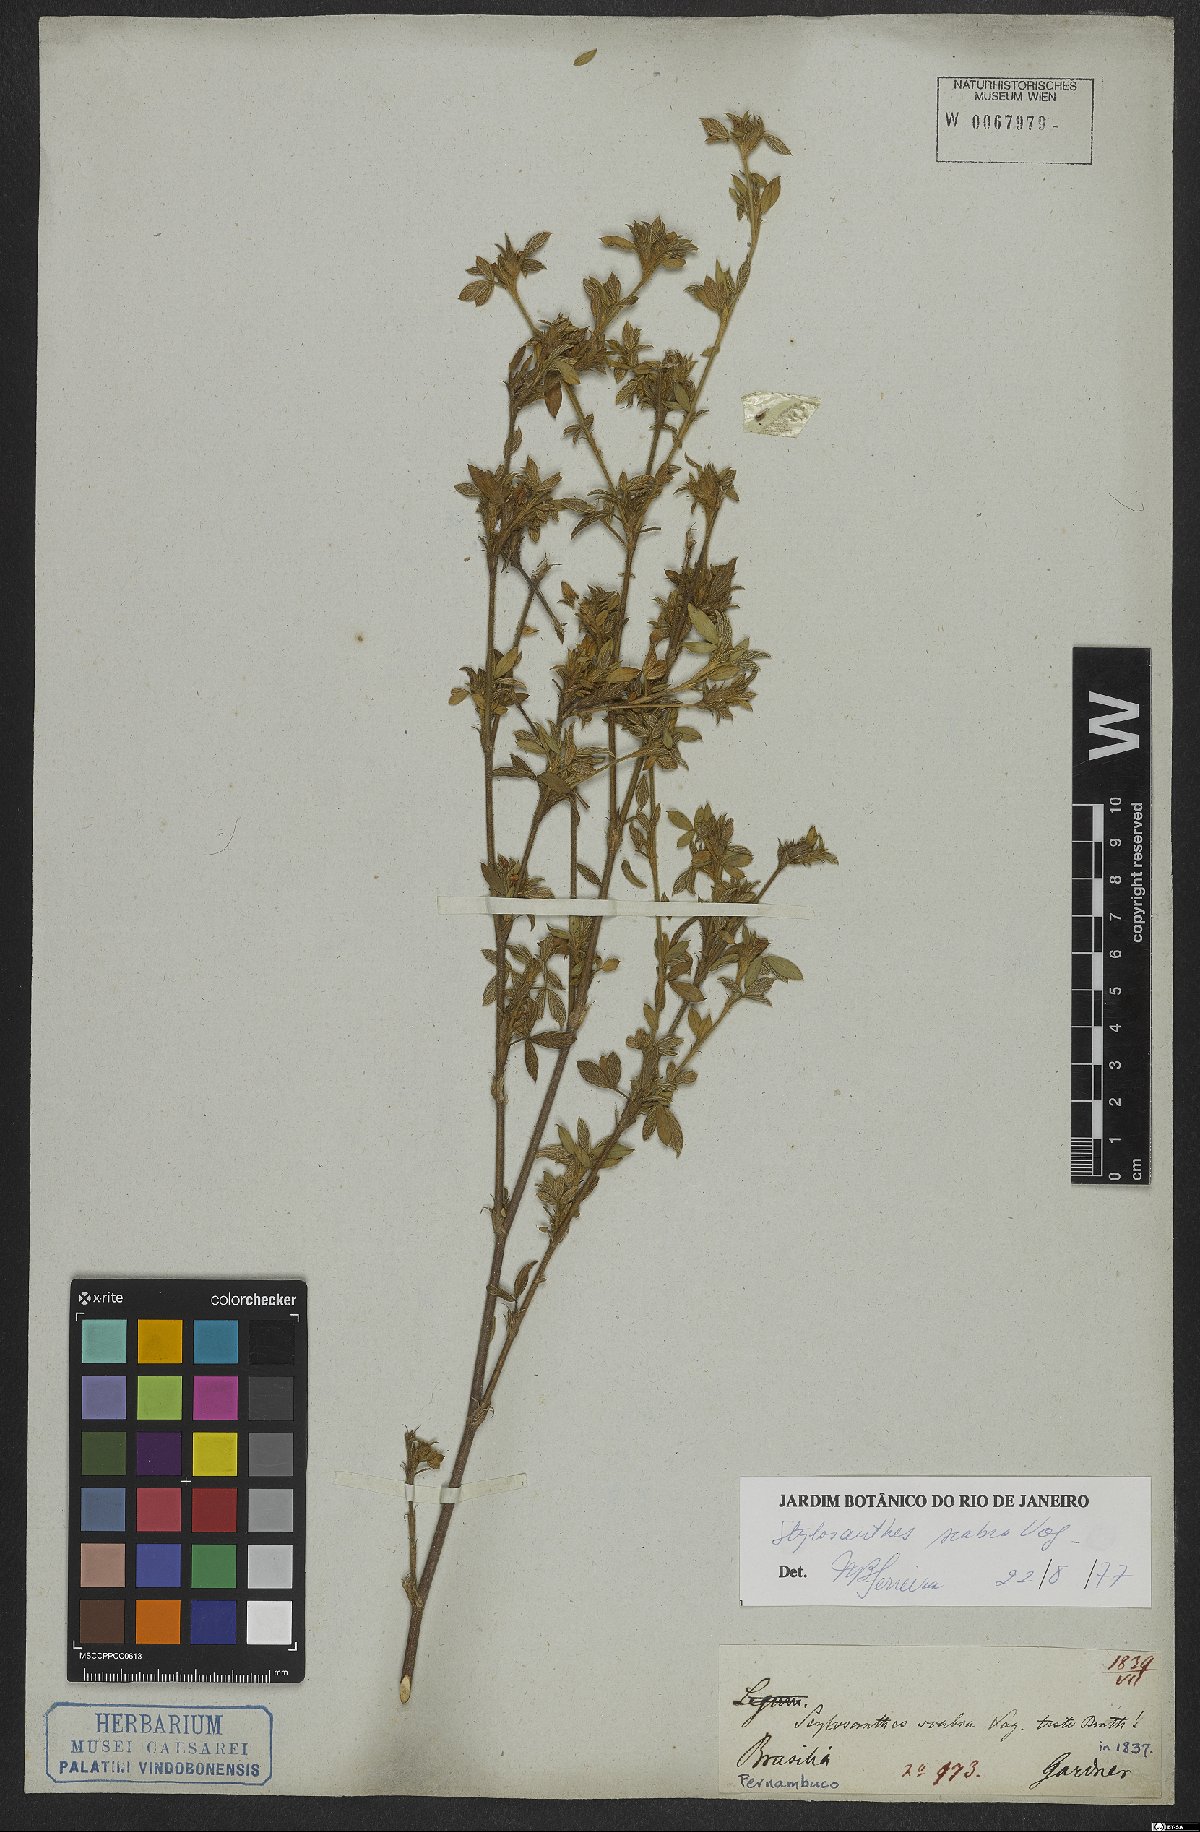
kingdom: Plantae
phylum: Tracheophyta
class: Magnoliopsida
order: Fabales
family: Fabaceae
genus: Stylosanthes
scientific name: Stylosanthes scabra
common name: Pencilflower
